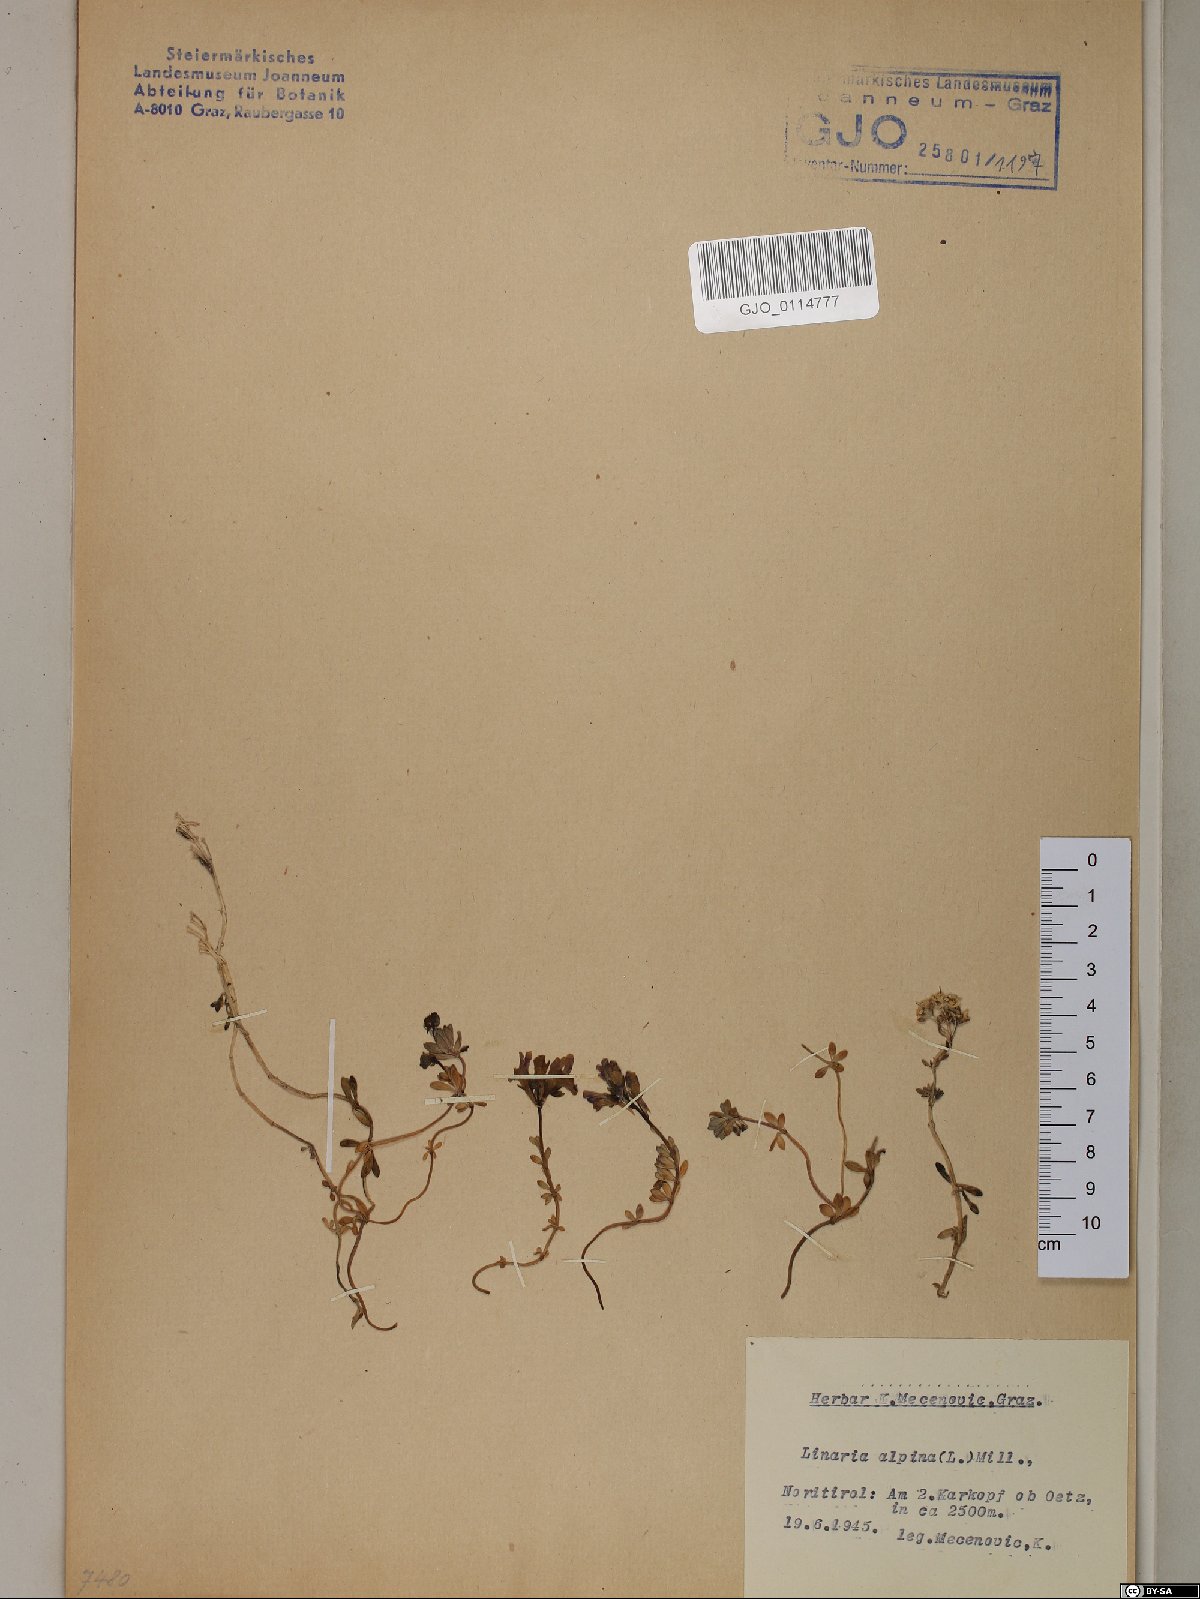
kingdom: Plantae
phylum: Tracheophyta
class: Magnoliopsida
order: Lamiales
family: Plantaginaceae
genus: Linaria
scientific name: Linaria alpina
